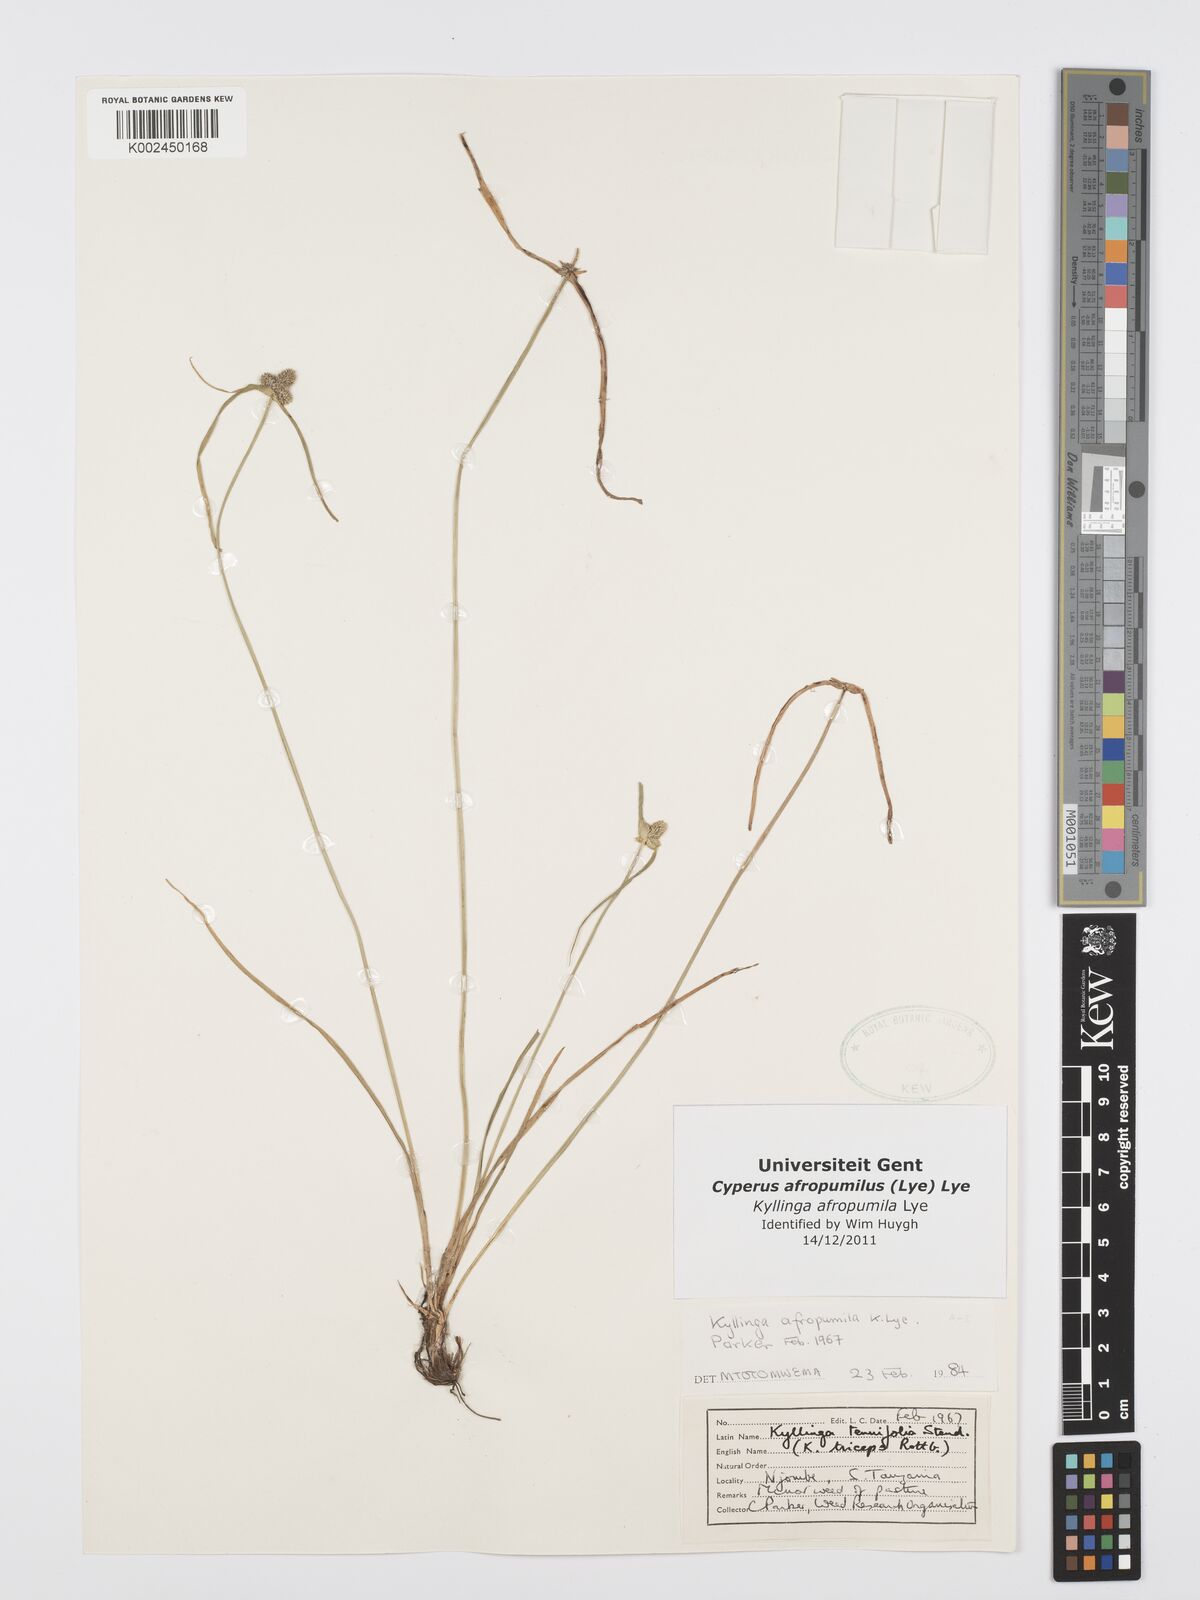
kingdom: Plantae
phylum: Tracheophyta
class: Liliopsida
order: Poales
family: Cyperaceae
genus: Cyperus
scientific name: Cyperus afropumilus
